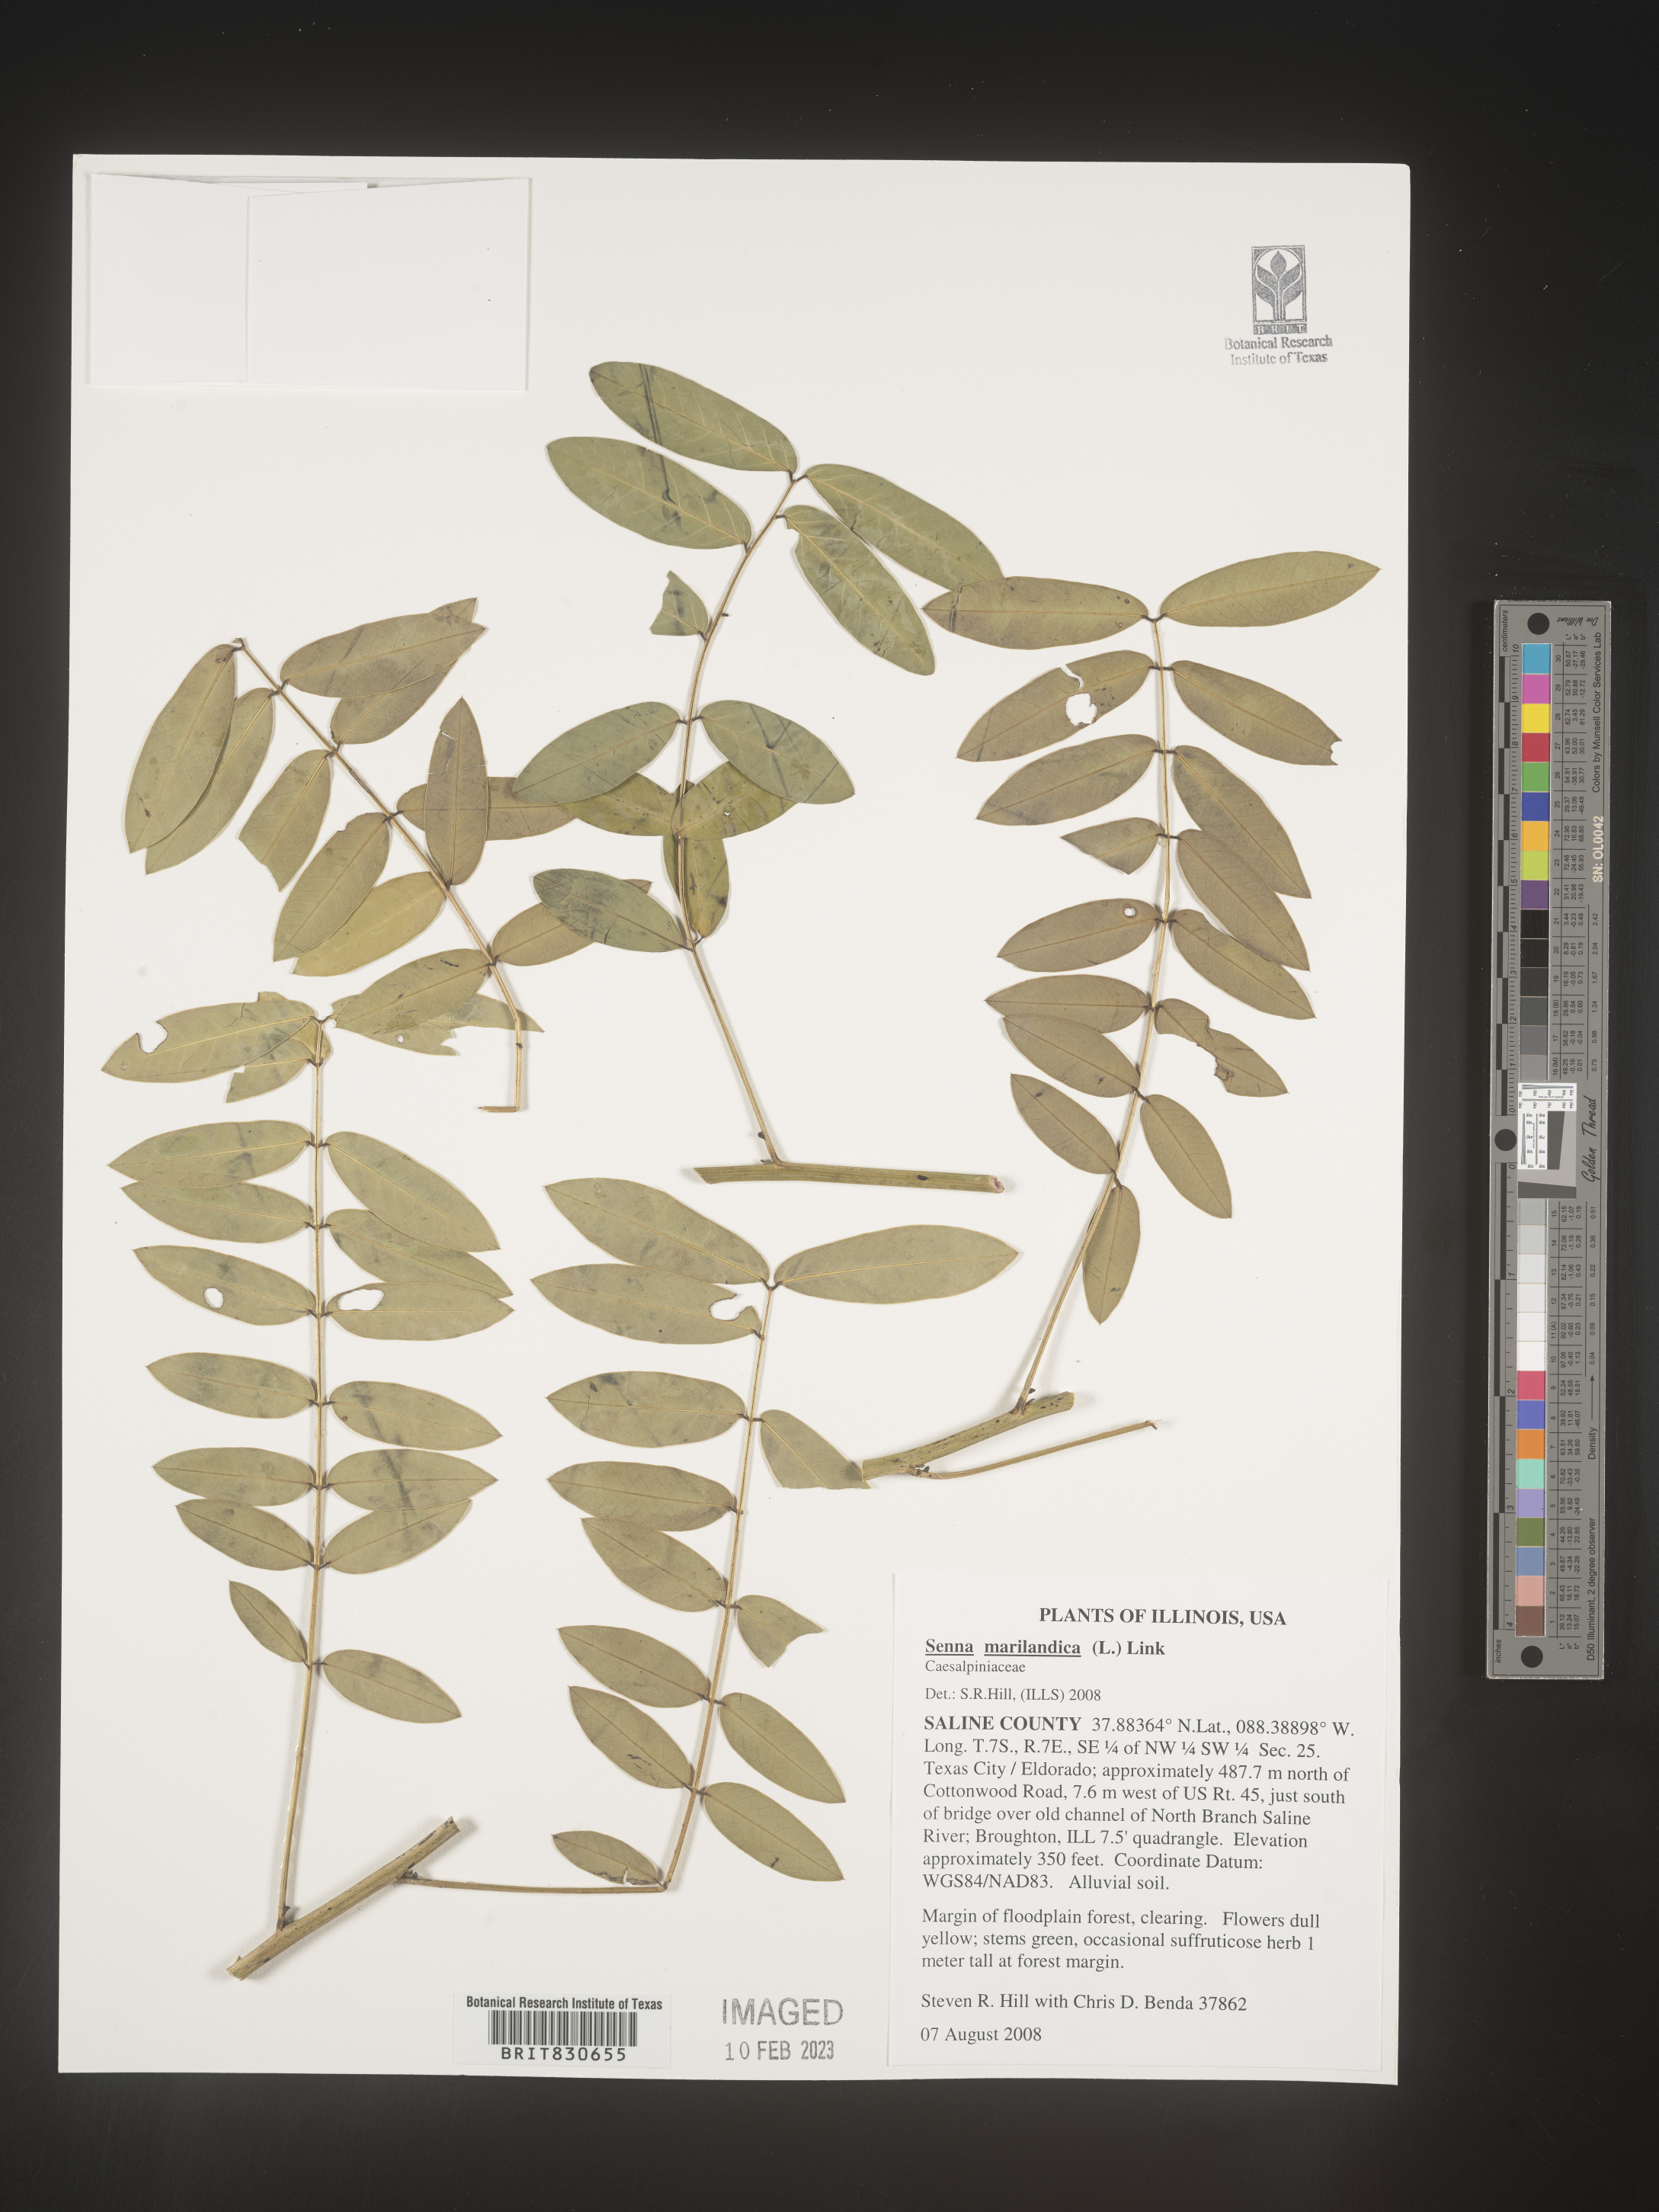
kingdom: Plantae
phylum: Tracheophyta
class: Magnoliopsida
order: Fabales
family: Fabaceae
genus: Senna
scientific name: Senna
